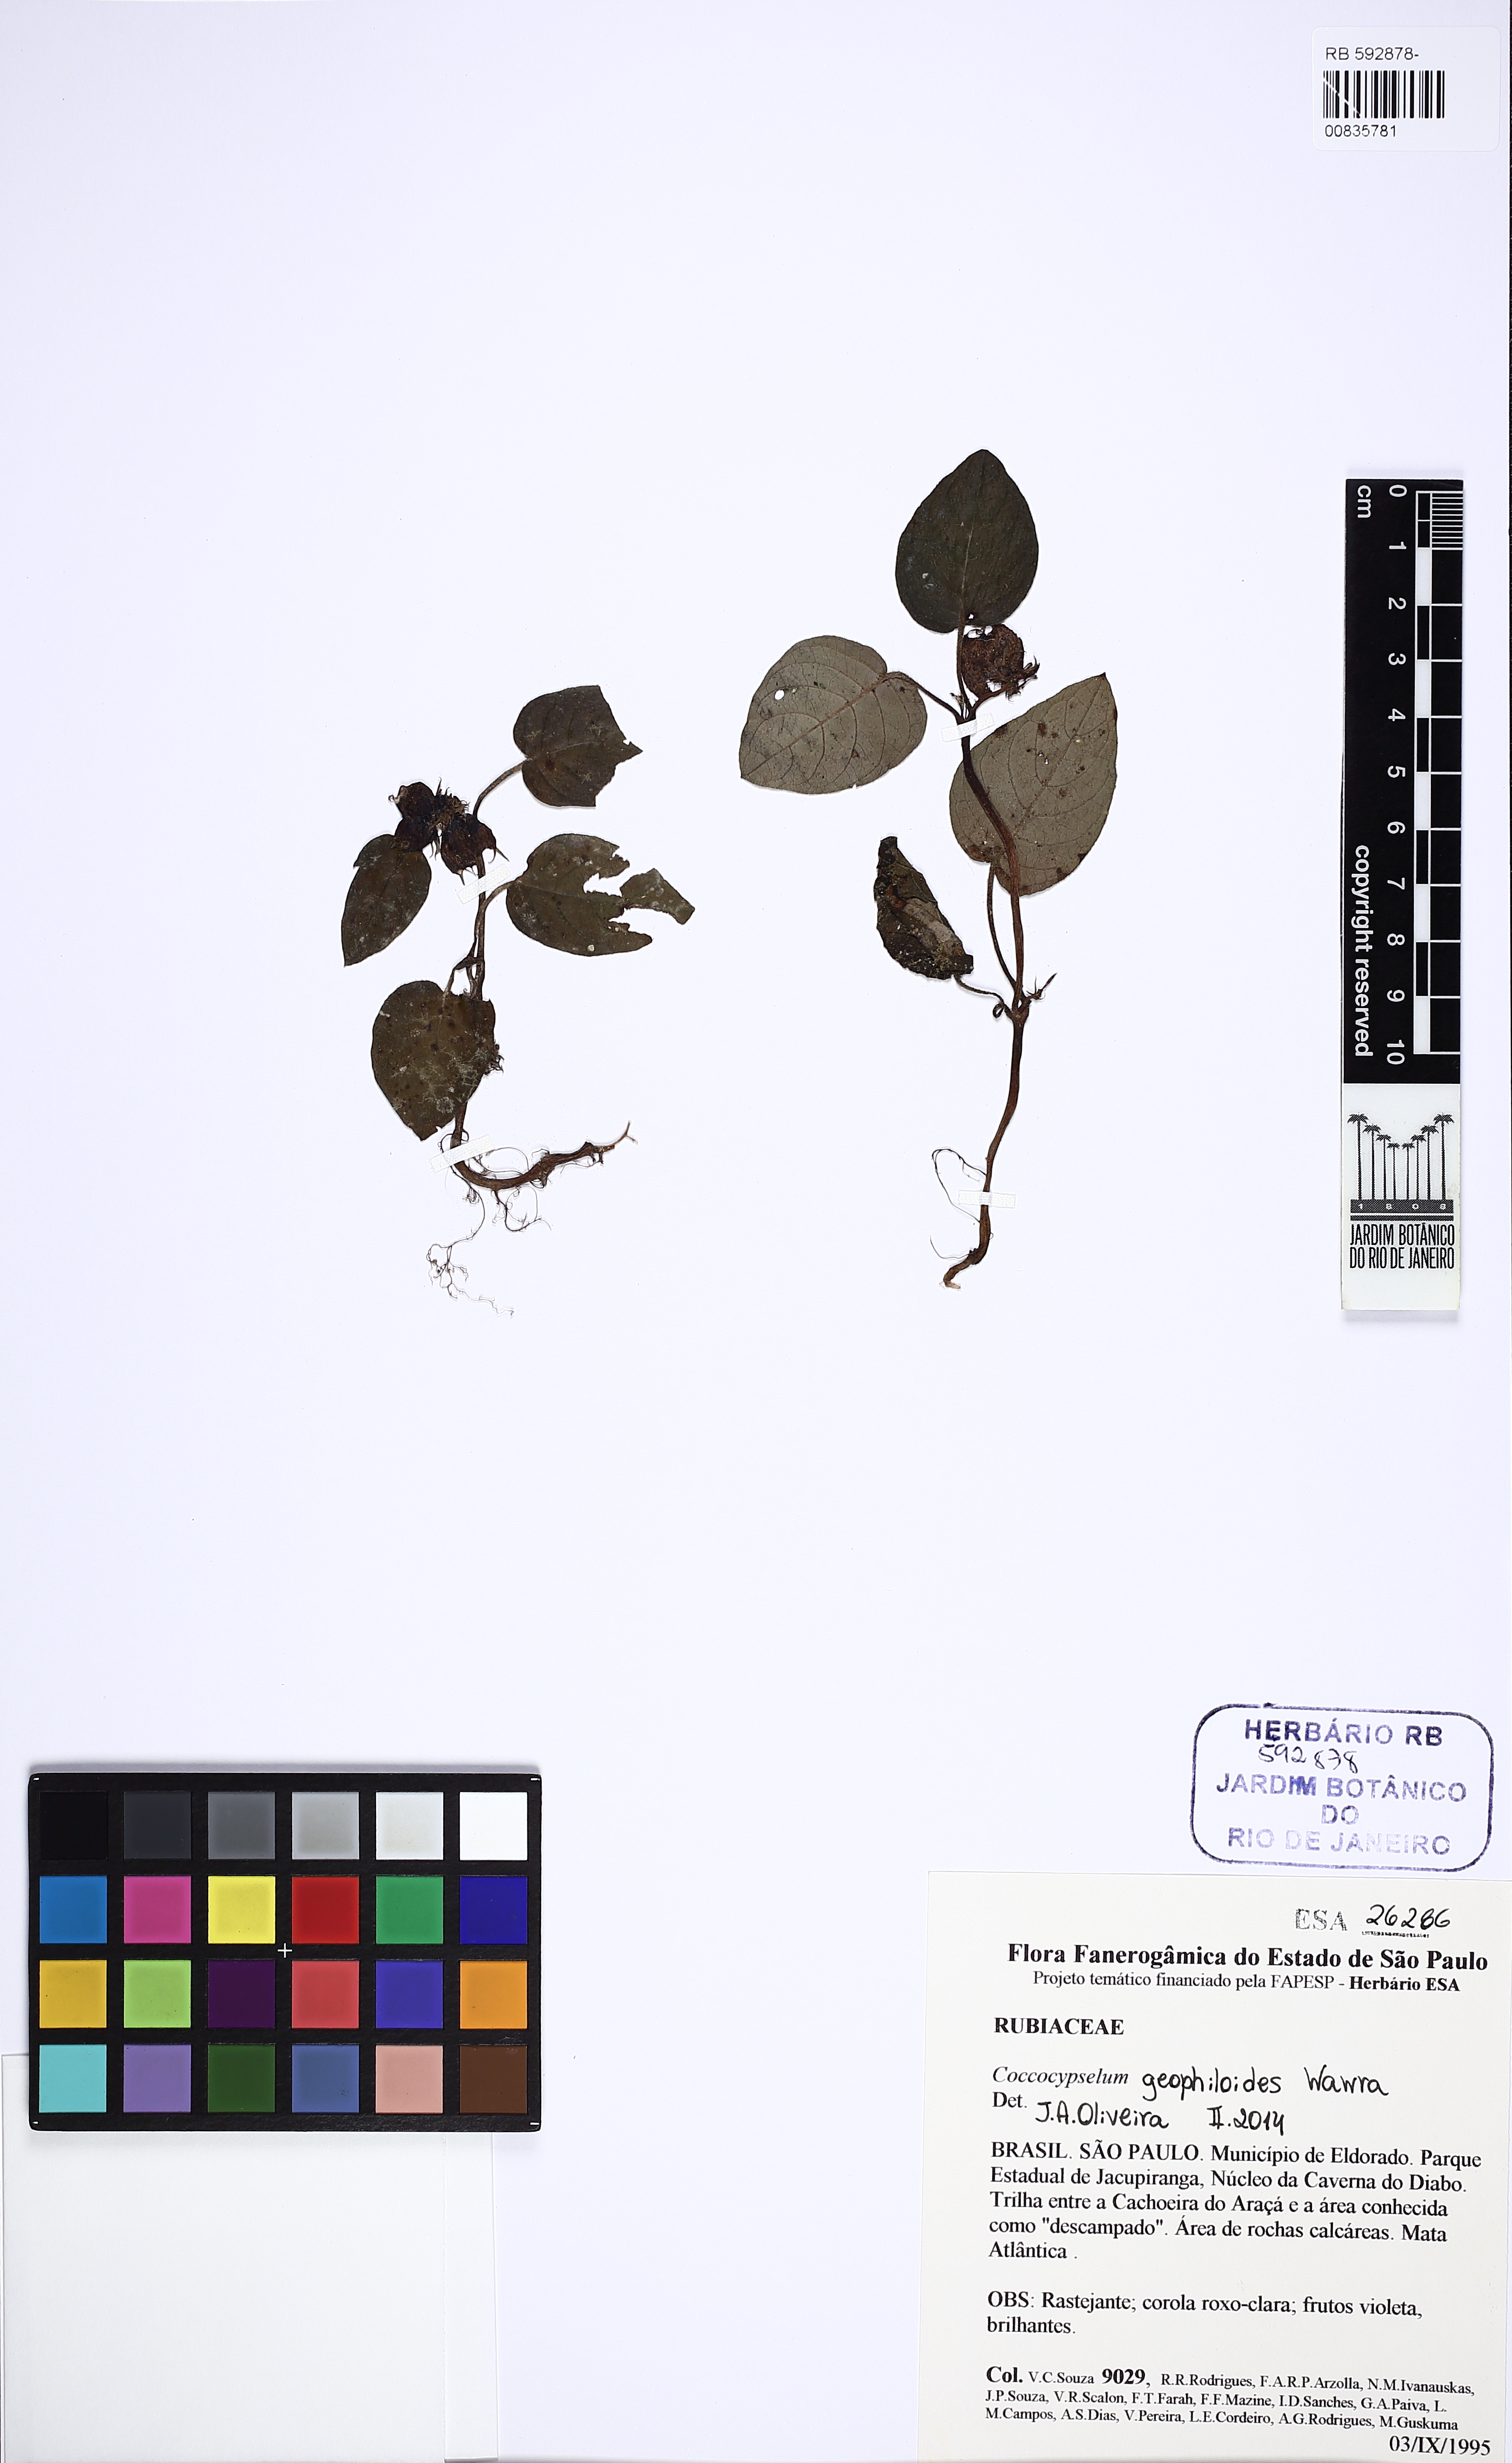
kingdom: Plantae
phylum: Tracheophyta
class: Magnoliopsida
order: Gentianales
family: Rubiaceae
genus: Coccocypselum
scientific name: Coccocypselum geophiloides
